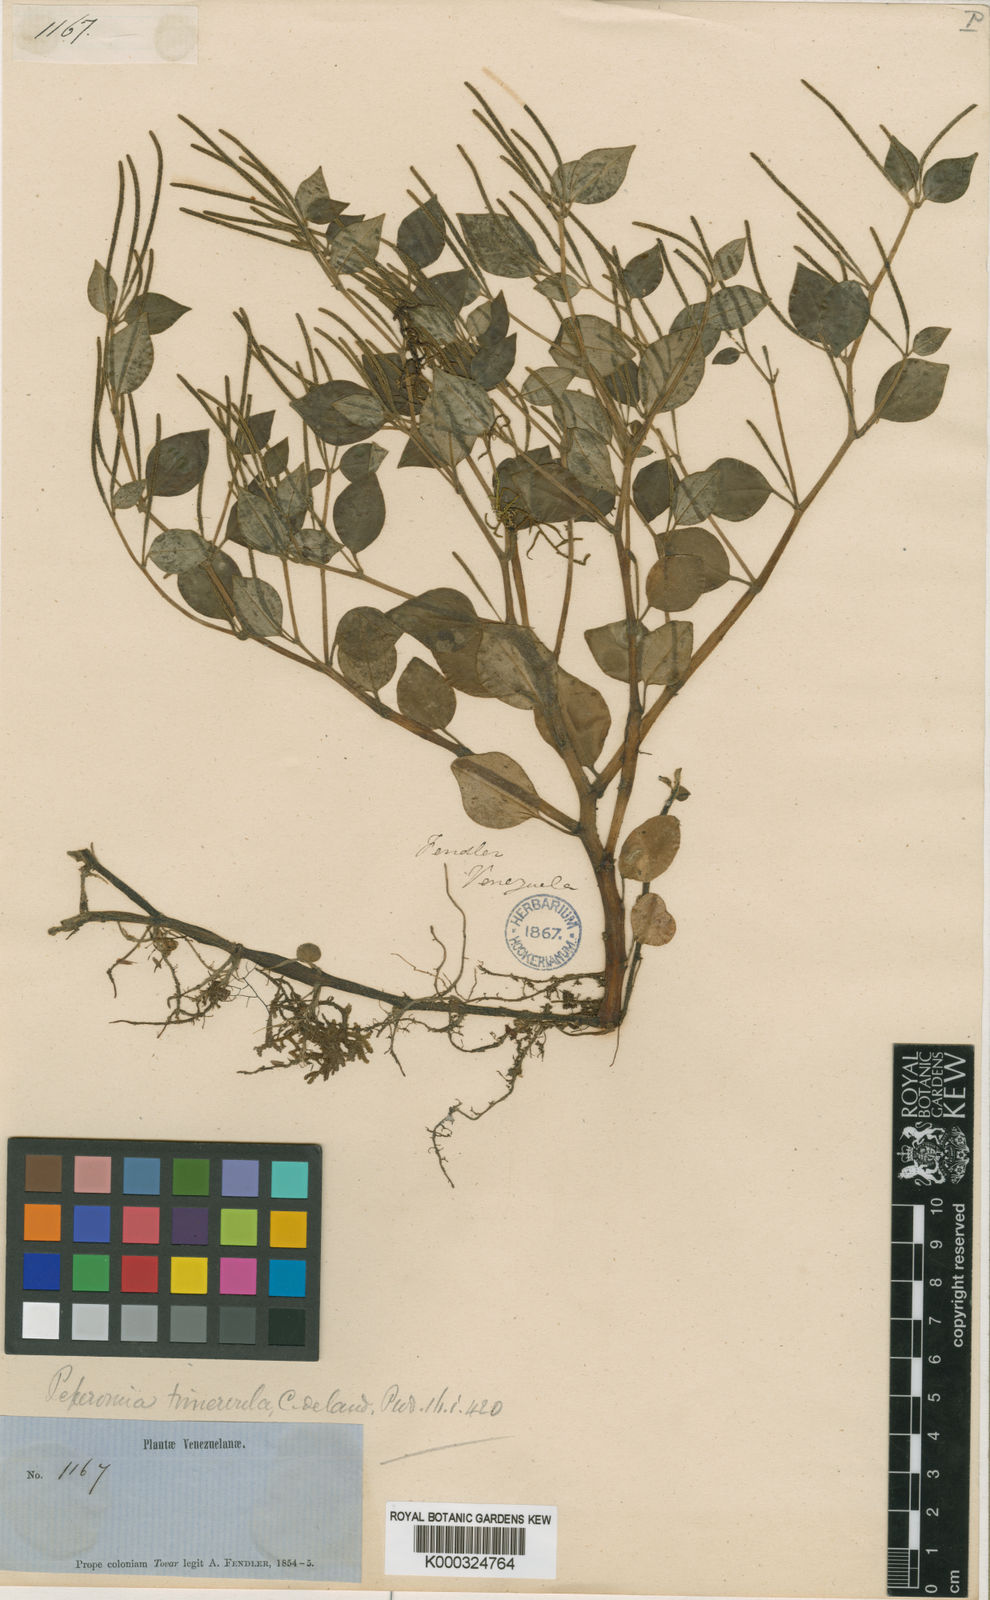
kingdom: Plantae
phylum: Tracheophyta
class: Magnoliopsida
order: Piperales
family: Piperaceae
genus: Peperomia
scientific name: Peperomia trinervula
